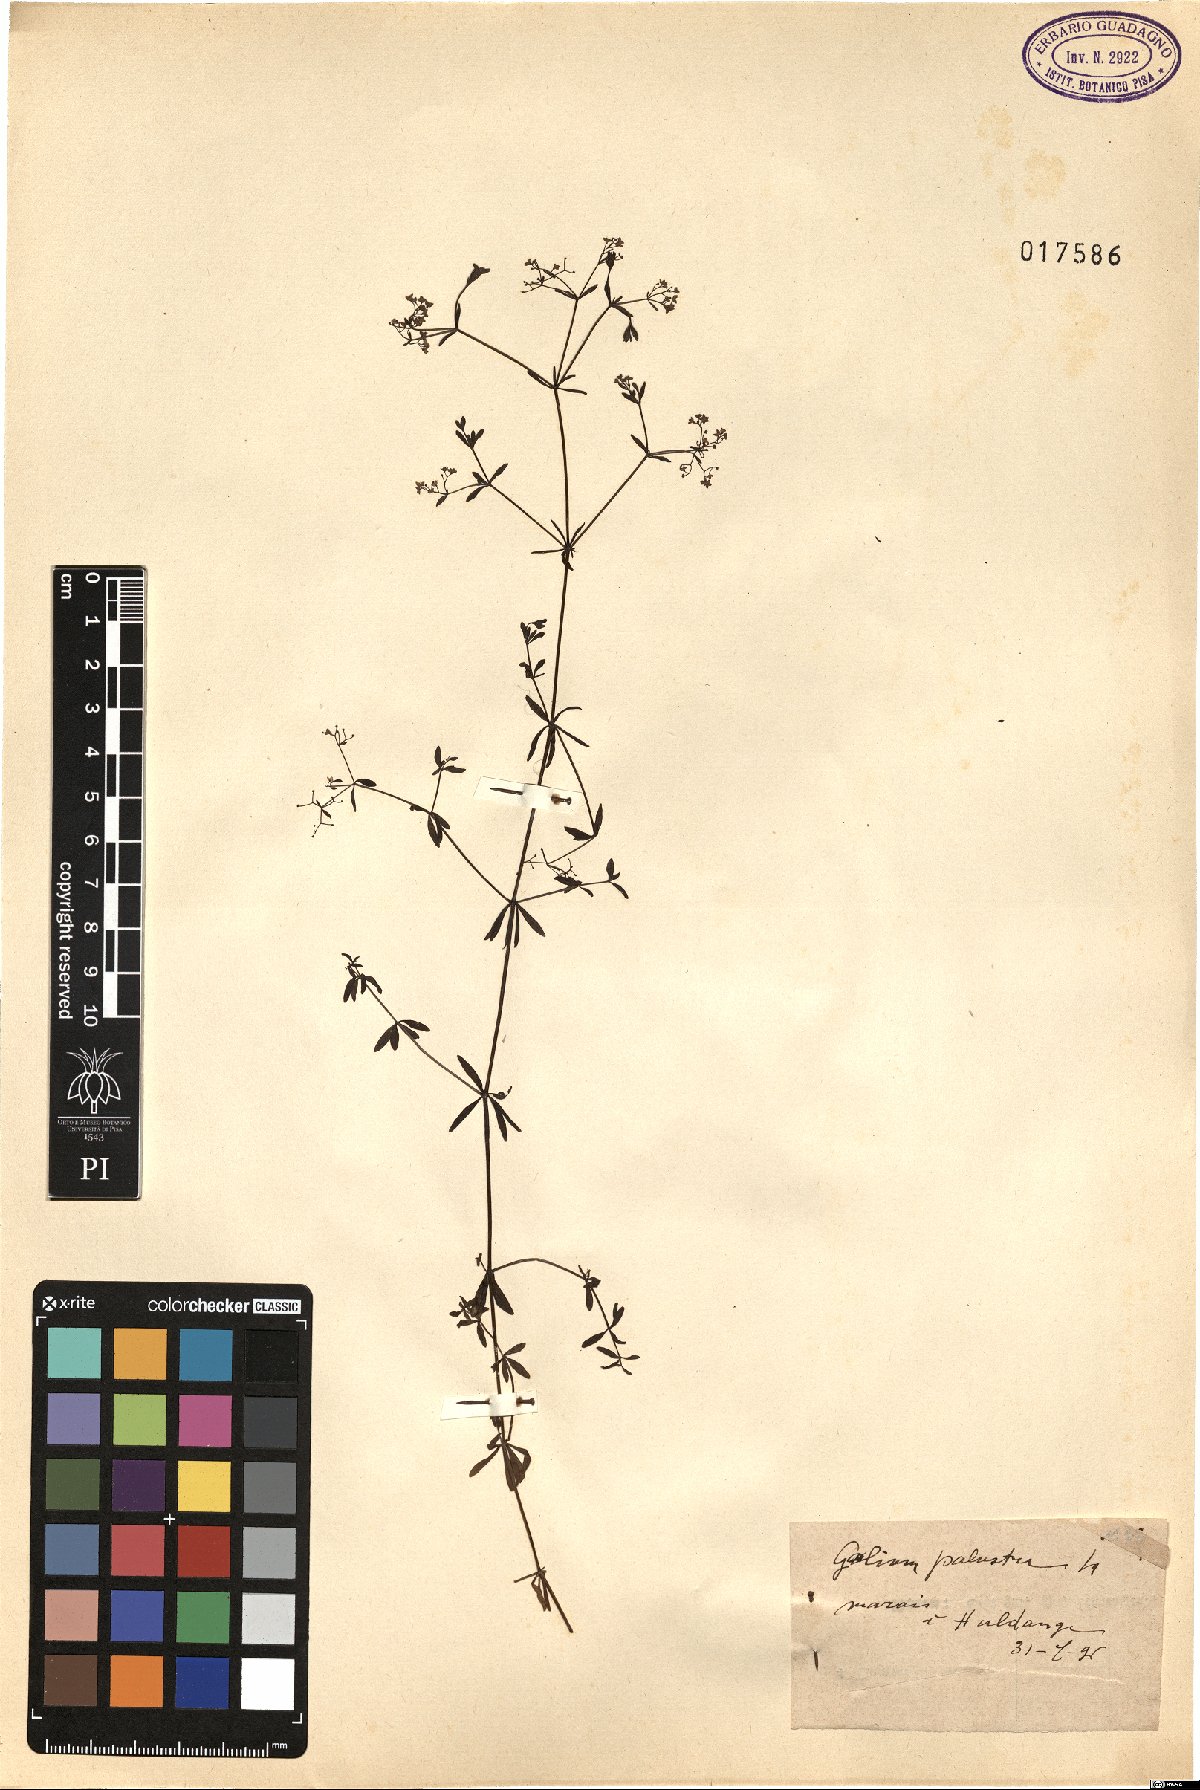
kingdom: Plantae
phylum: Tracheophyta
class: Magnoliopsida
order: Gentianales
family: Rubiaceae
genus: Galium
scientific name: Galium palustre
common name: Common marsh-bedstraw
